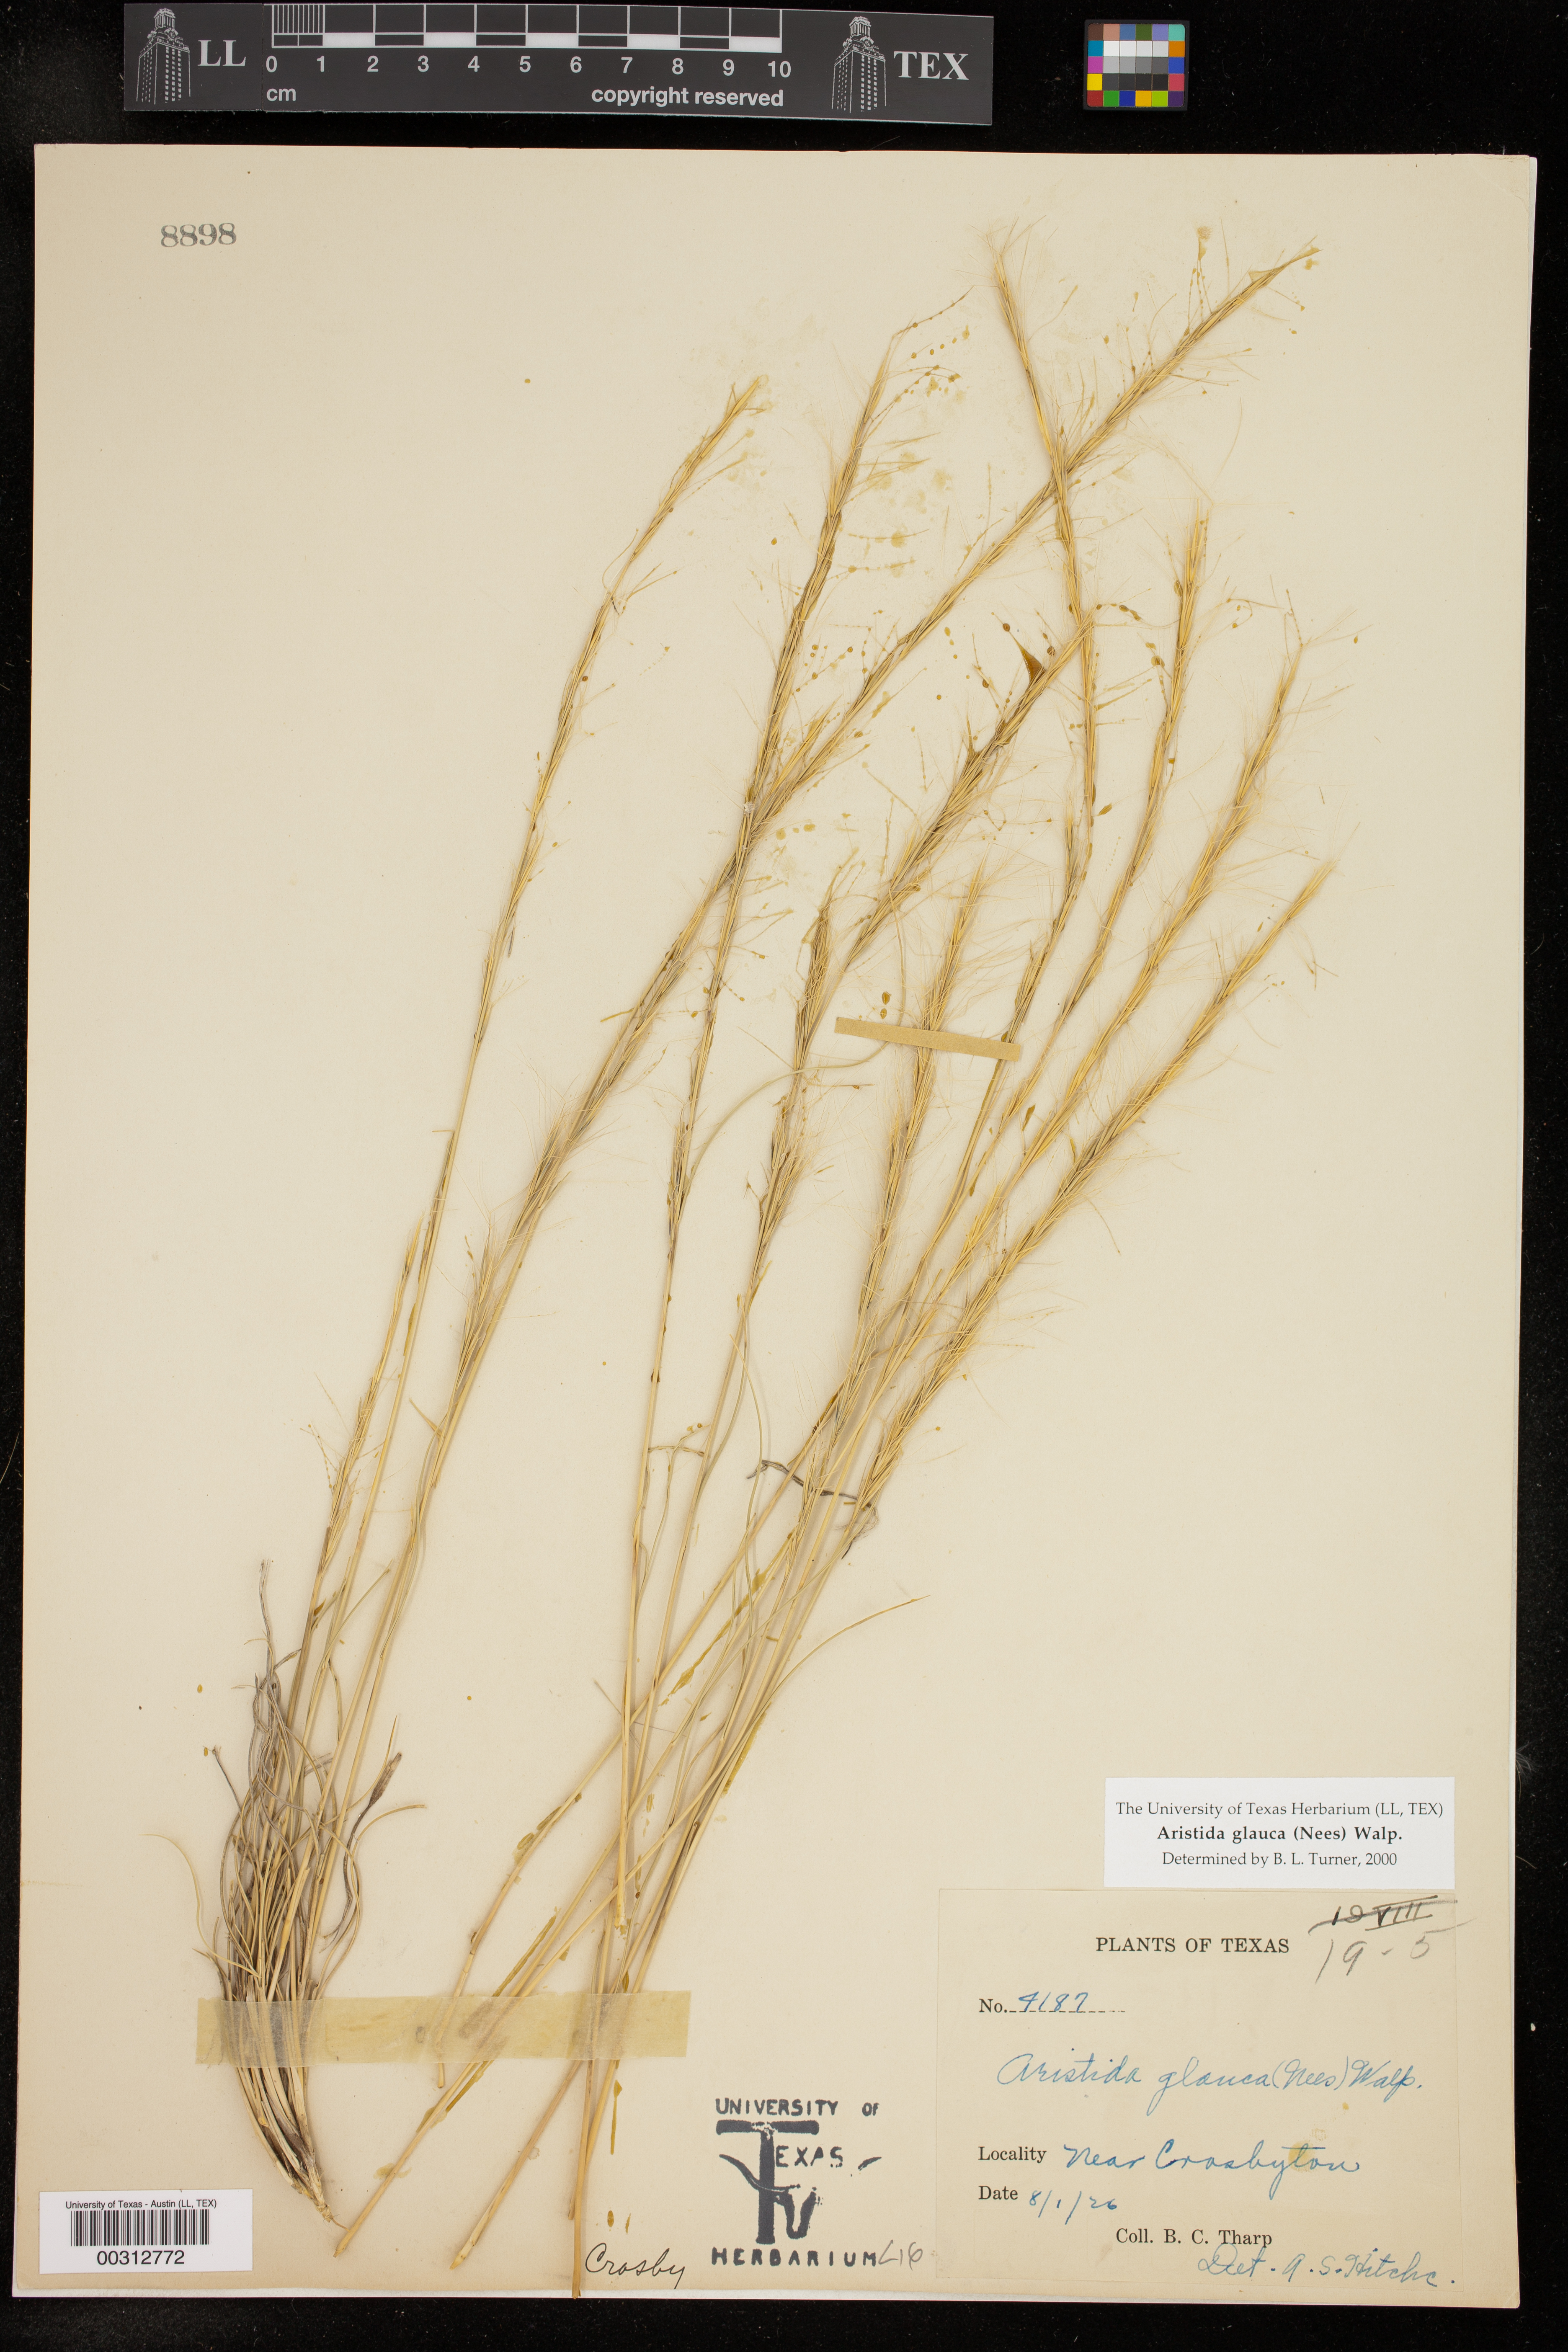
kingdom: Plantae
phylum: Tracheophyta
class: Liliopsida
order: Poales
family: Poaceae
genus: Aristida
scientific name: Aristida glauca
